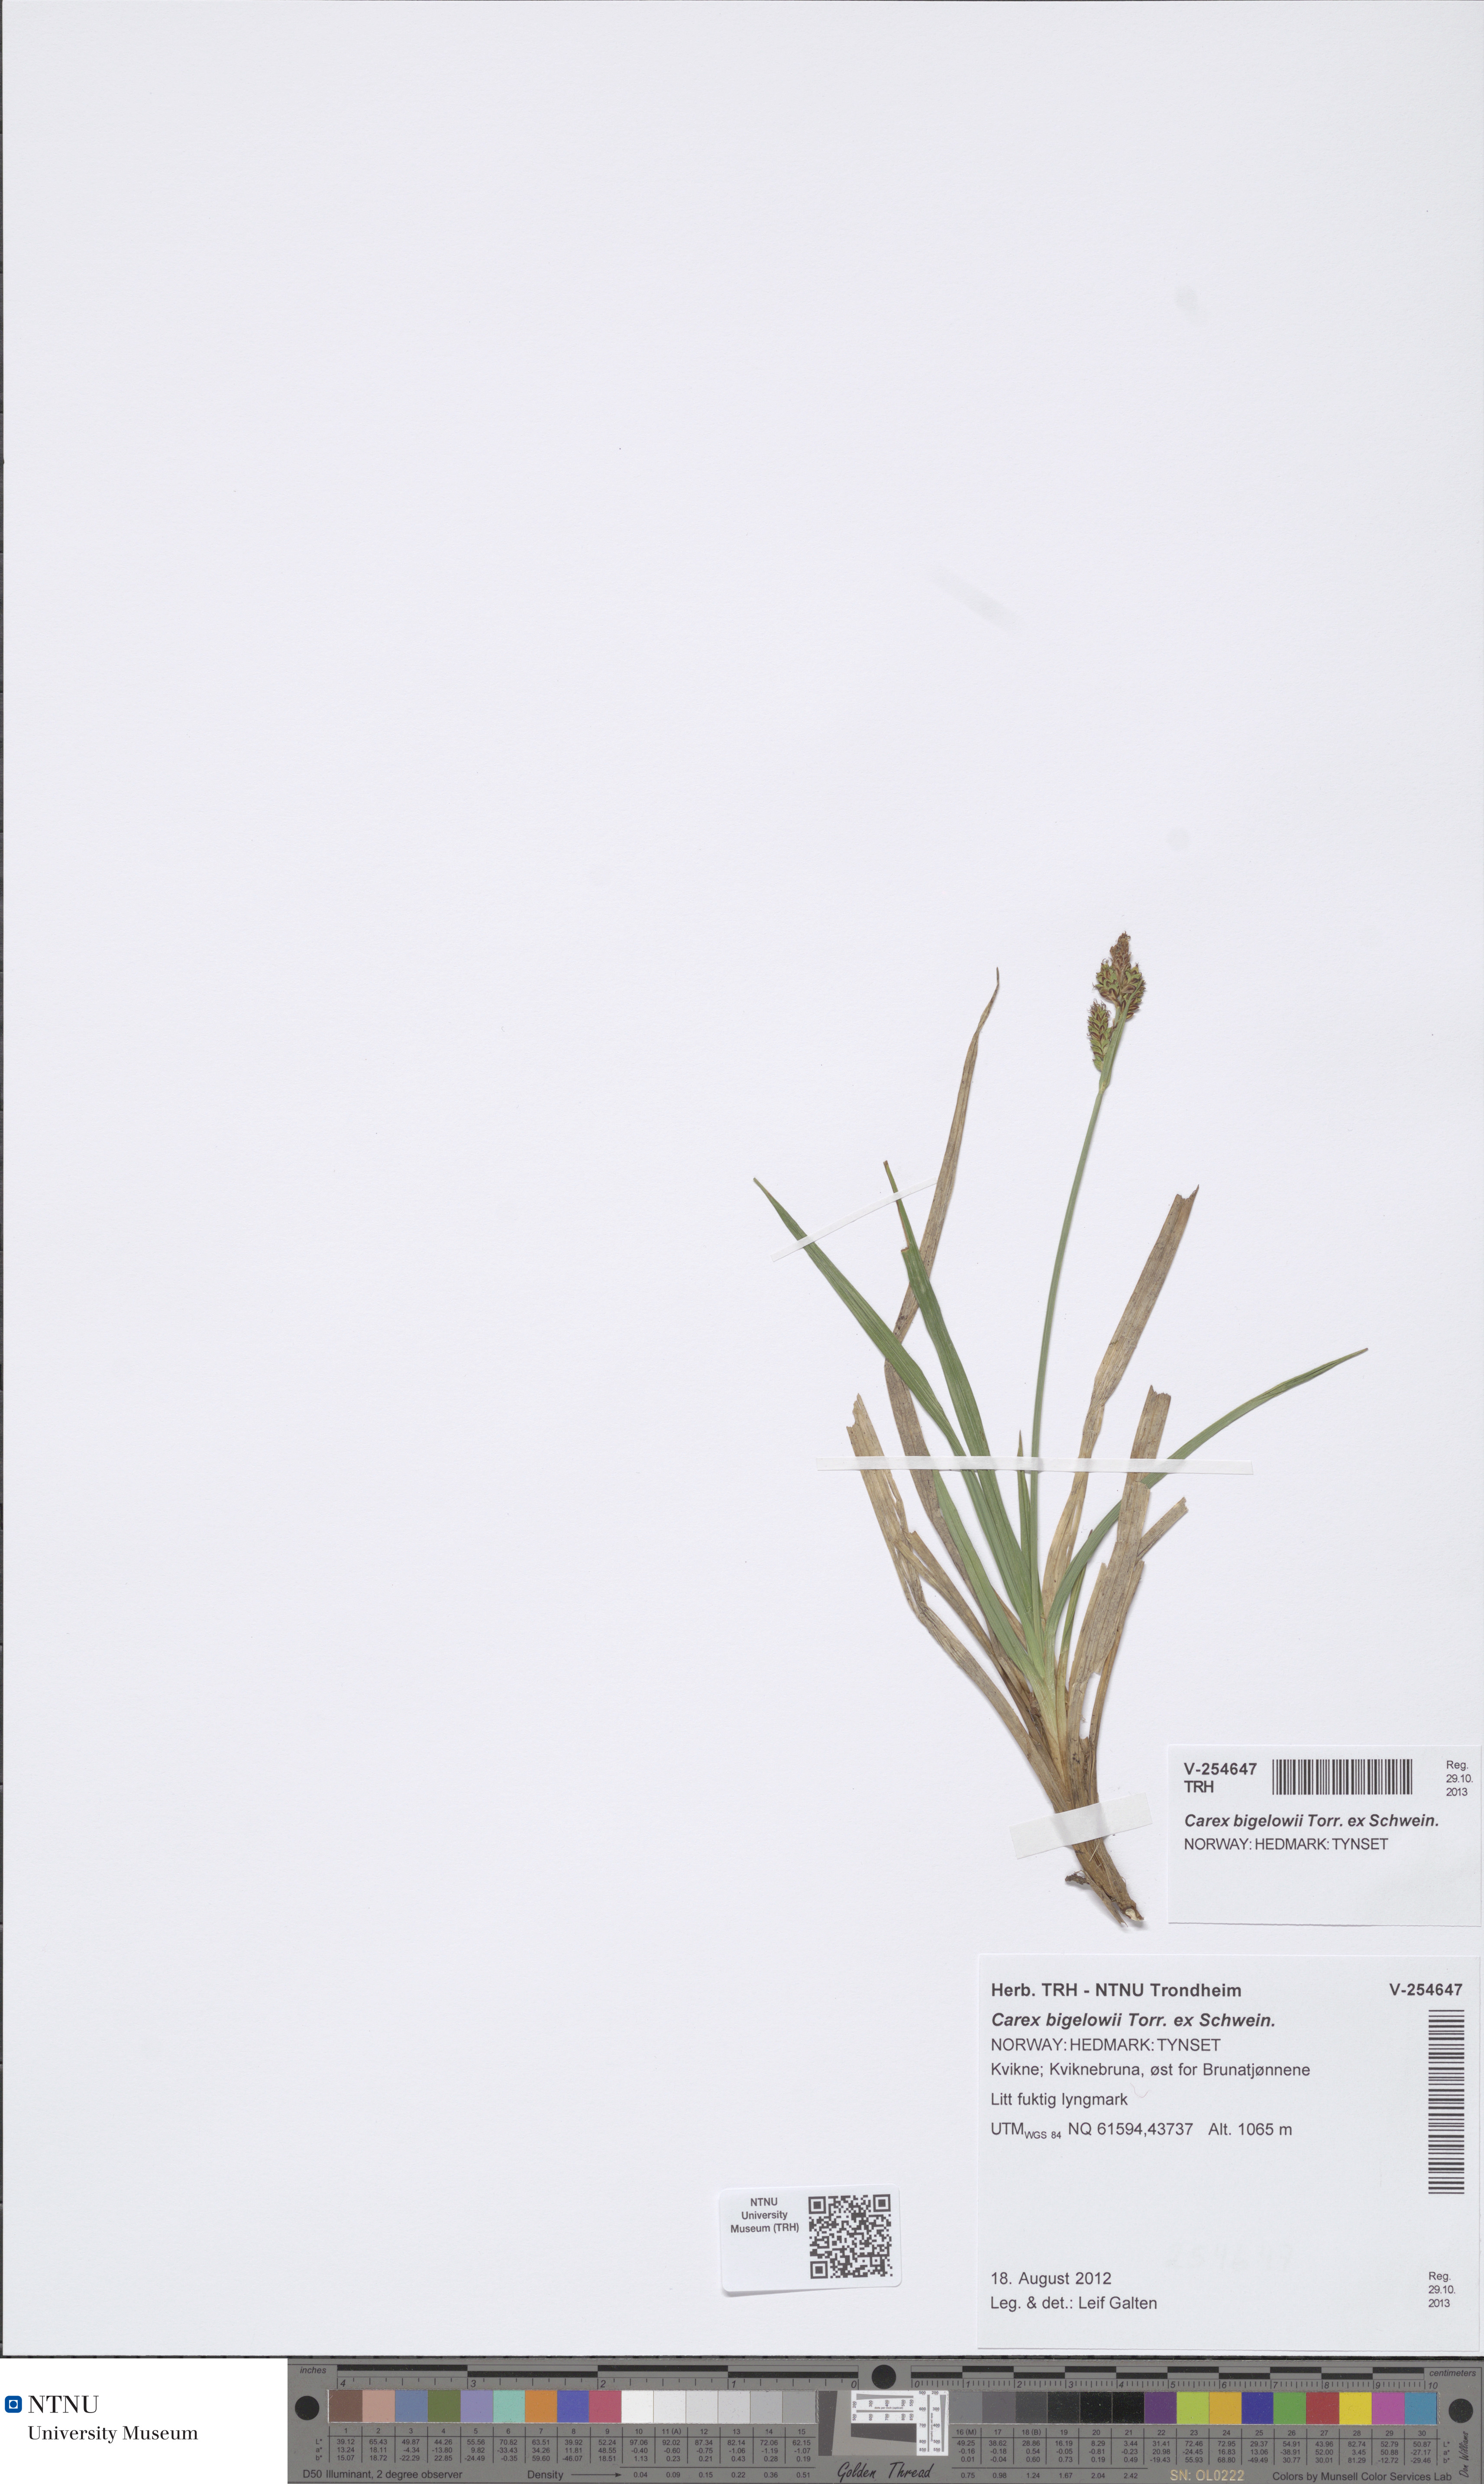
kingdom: Plantae
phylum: Tracheophyta
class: Liliopsida
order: Poales
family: Cyperaceae
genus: Carex
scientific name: Carex bigelowii
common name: Stiff sedge
